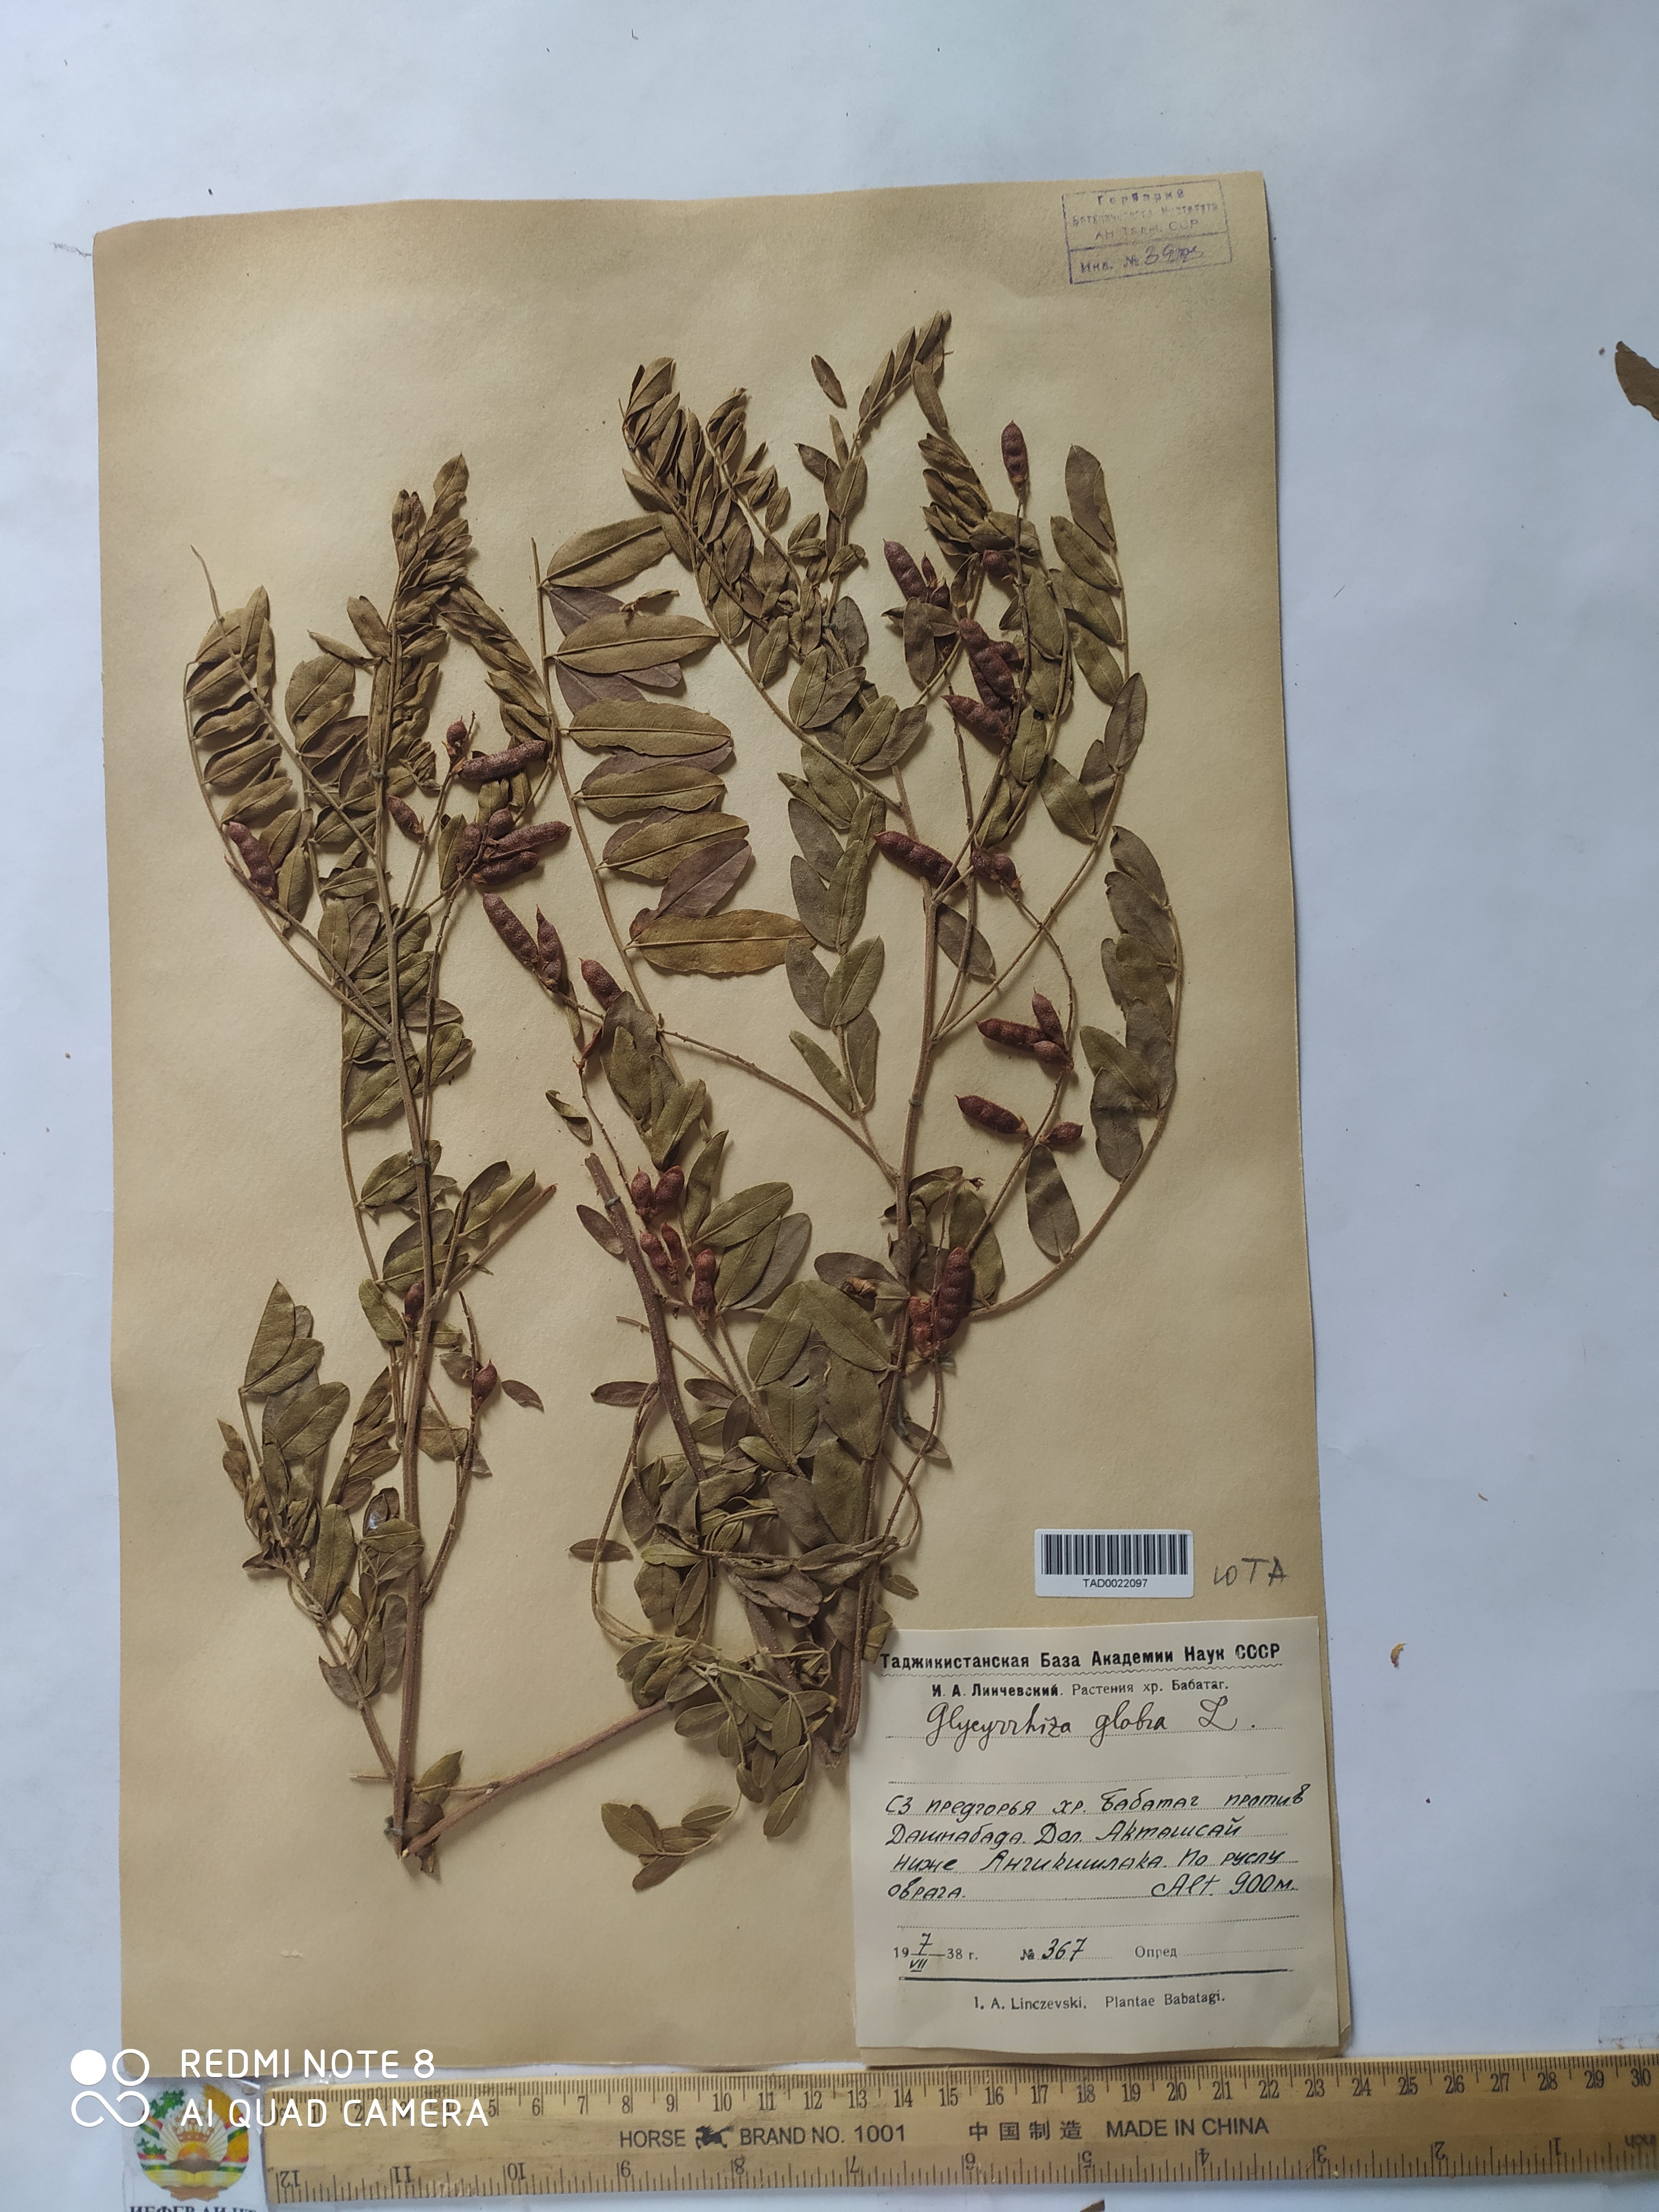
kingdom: Plantae
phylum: Tracheophyta
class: Magnoliopsida
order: Fabales
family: Fabaceae
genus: Glycyrrhiza
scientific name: Glycyrrhiza glabra
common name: Liquorice
